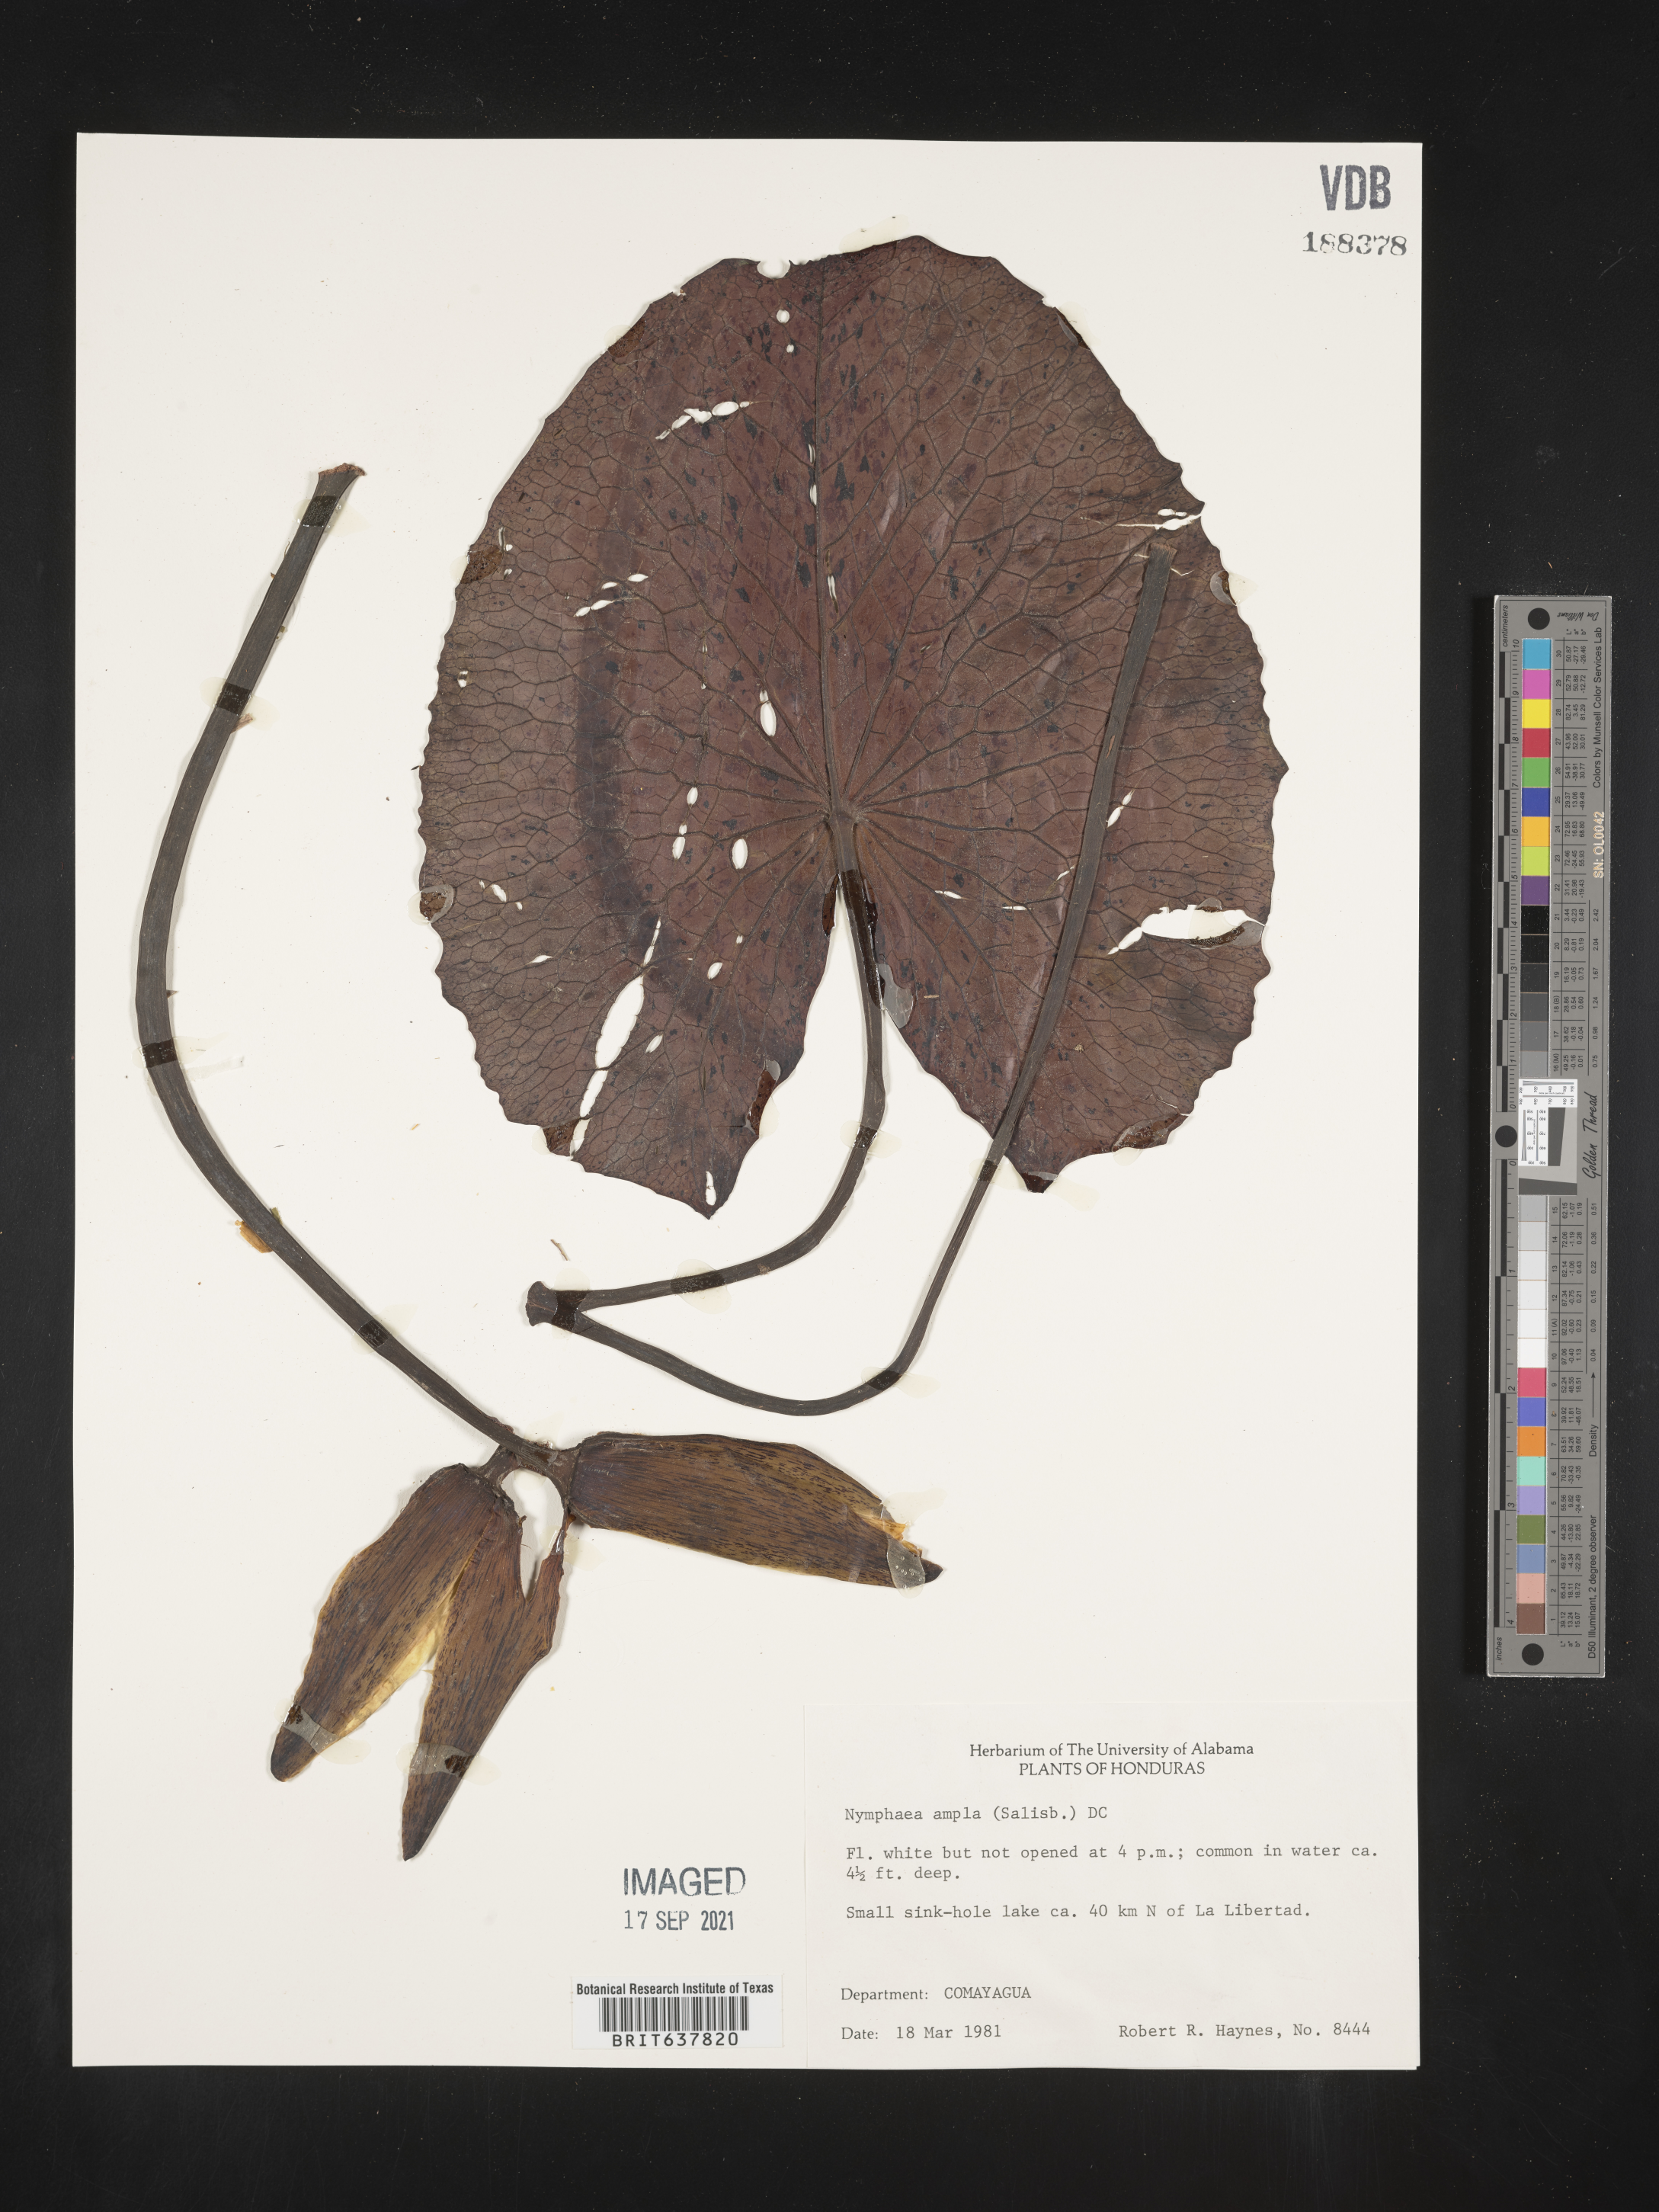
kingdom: Plantae
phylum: Tracheophyta
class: Magnoliopsida
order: Nymphaeales
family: Nymphaeaceae
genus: Nymphaea
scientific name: Nymphaea
